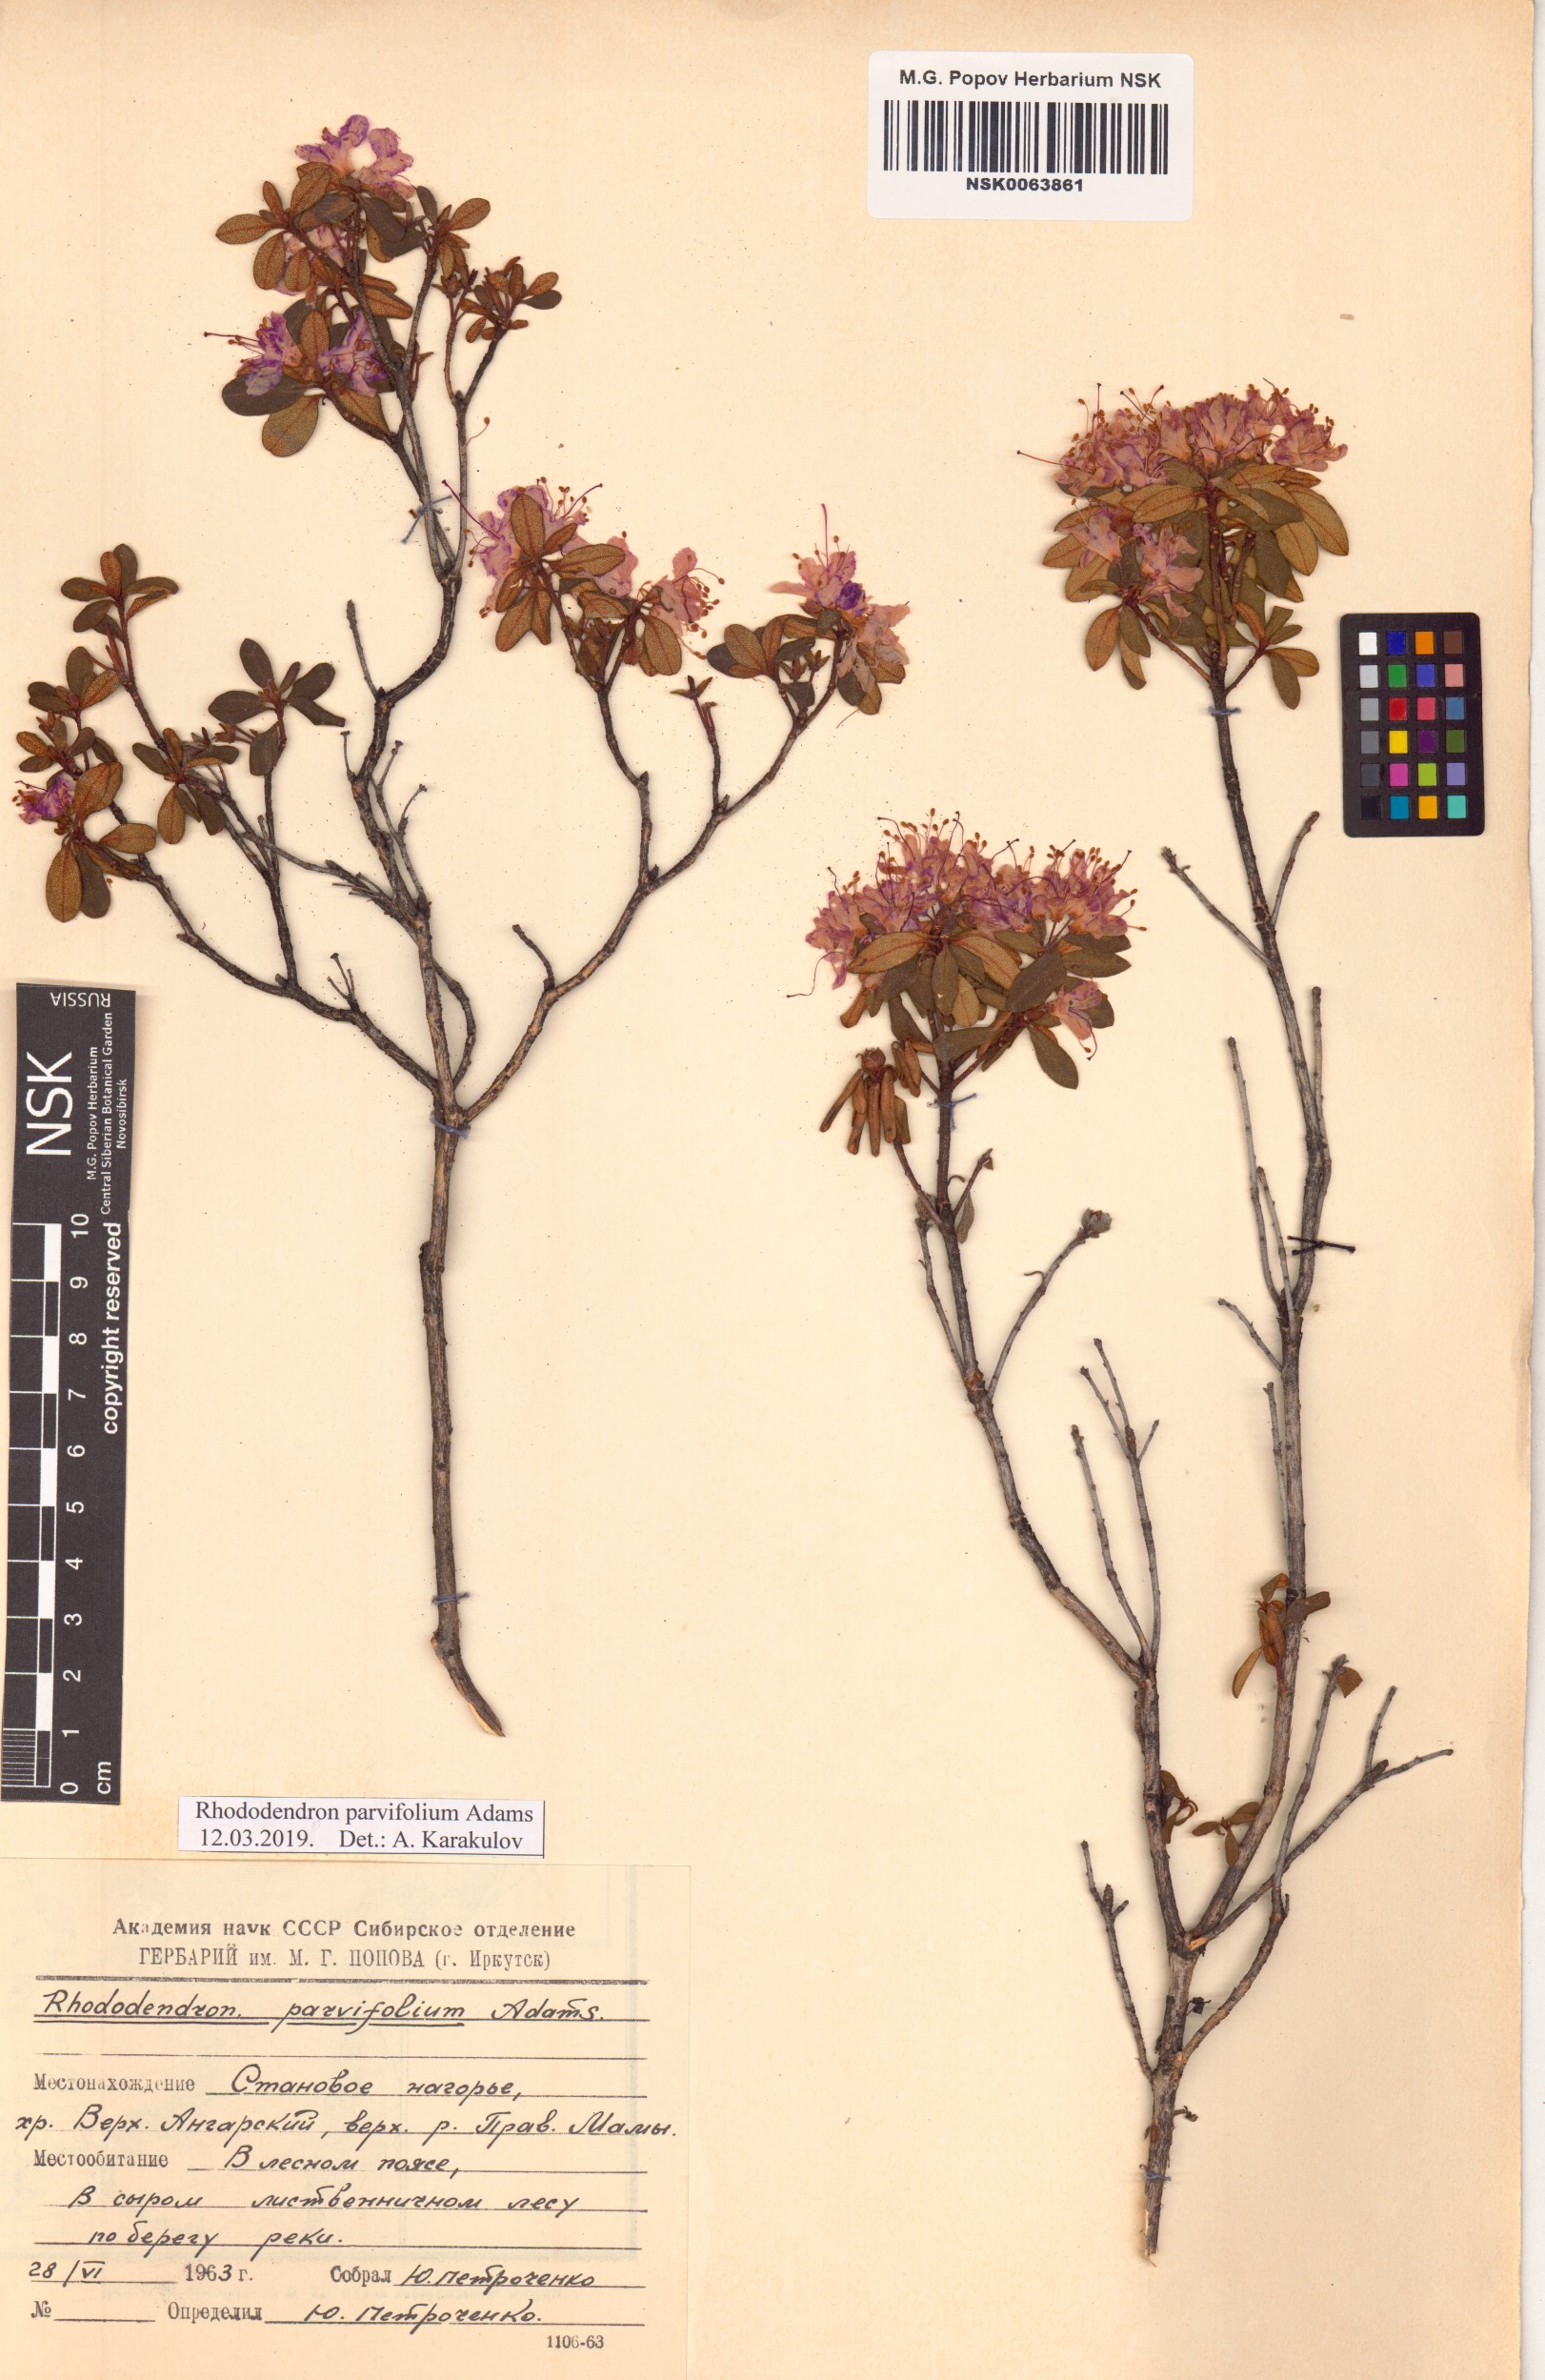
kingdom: Plantae
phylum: Tracheophyta
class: Magnoliopsida
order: Ericales
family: Ericaceae
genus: Rhododendron
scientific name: Rhododendron parvifolium
